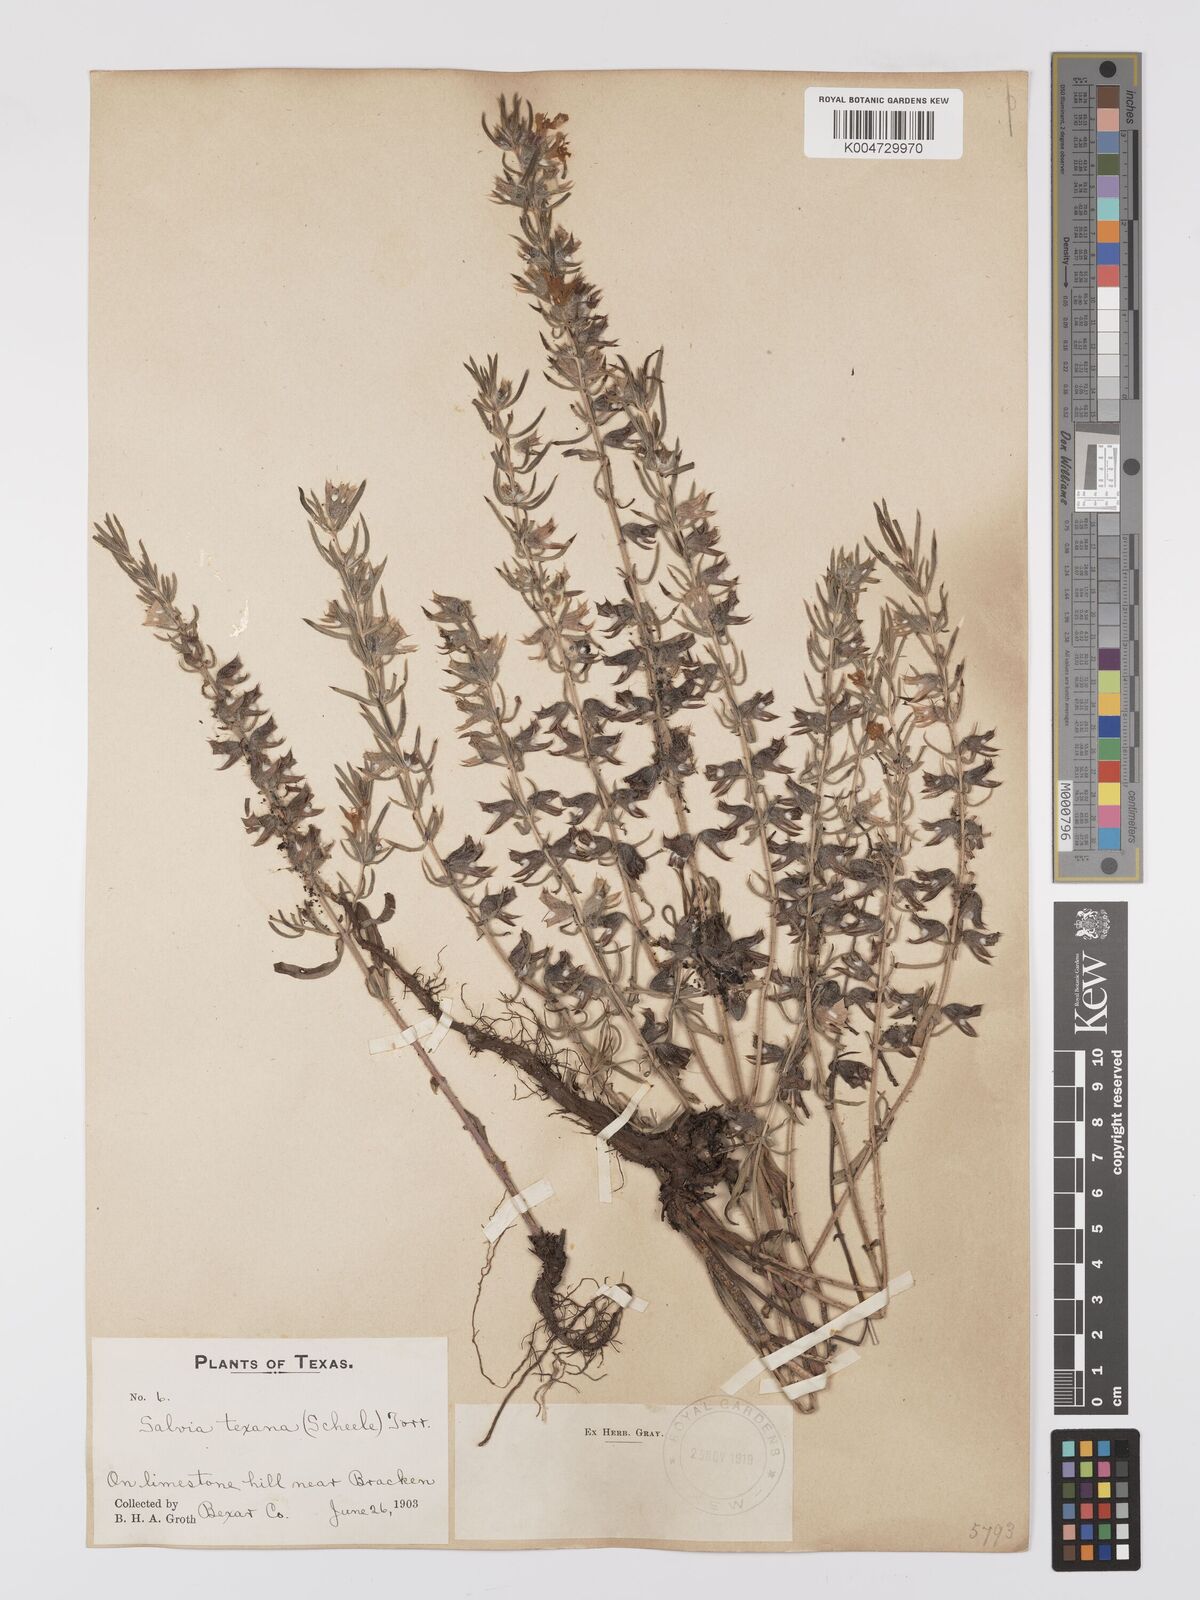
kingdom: Plantae
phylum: Tracheophyta
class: Magnoliopsida
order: Lamiales
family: Lamiaceae
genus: Salvia
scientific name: Salvia texana
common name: Texas sage
